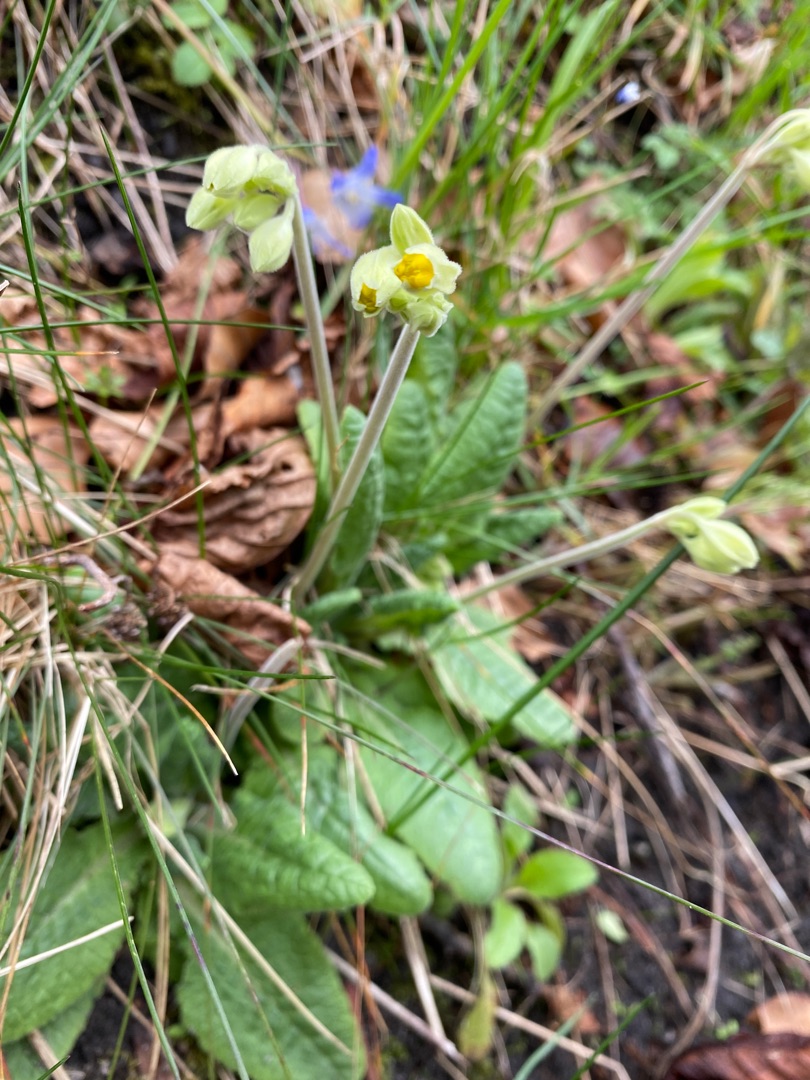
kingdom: Plantae
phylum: Tracheophyta
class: Magnoliopsida
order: Ericales
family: Primulaceae
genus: Primula
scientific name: Primula veris
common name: Hulkravet kodriver
